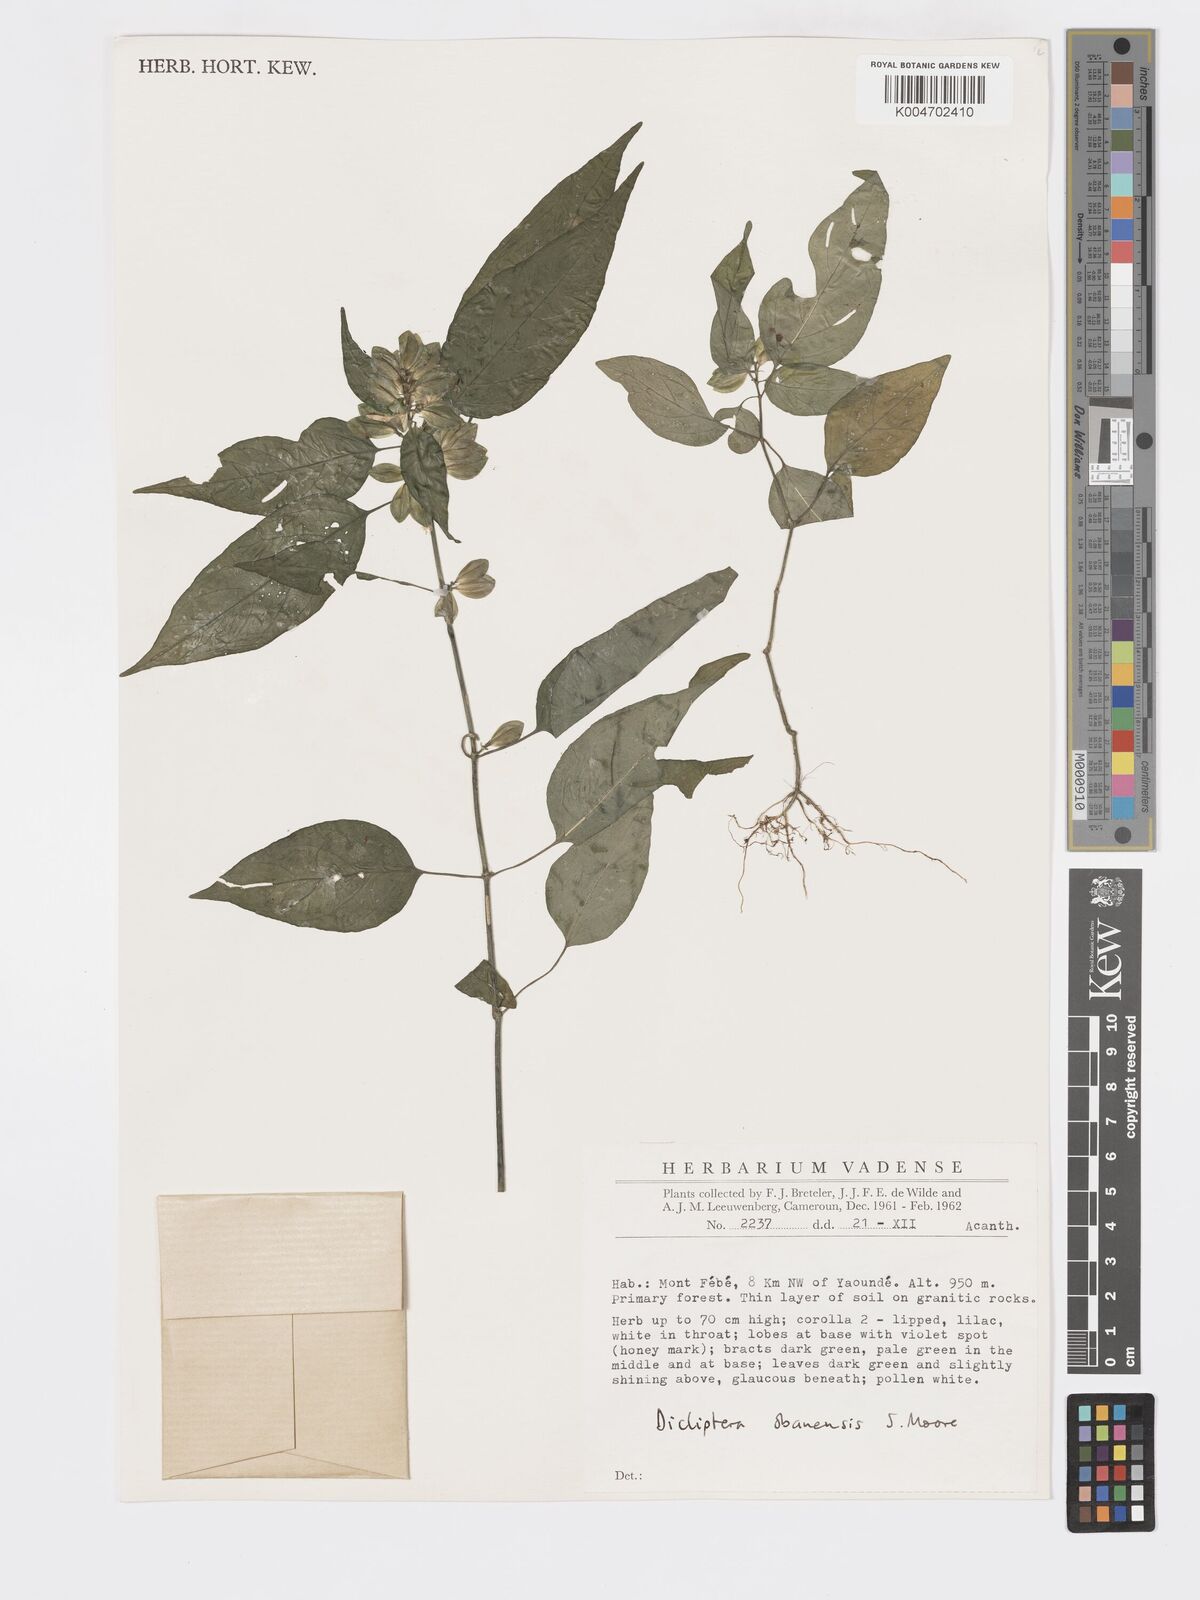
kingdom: Plantae
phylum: Tracheophyta
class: Magnoliopsida
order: Lamiales
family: Acanthaceae
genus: Dicliptera
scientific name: Dicliptera elliotii
